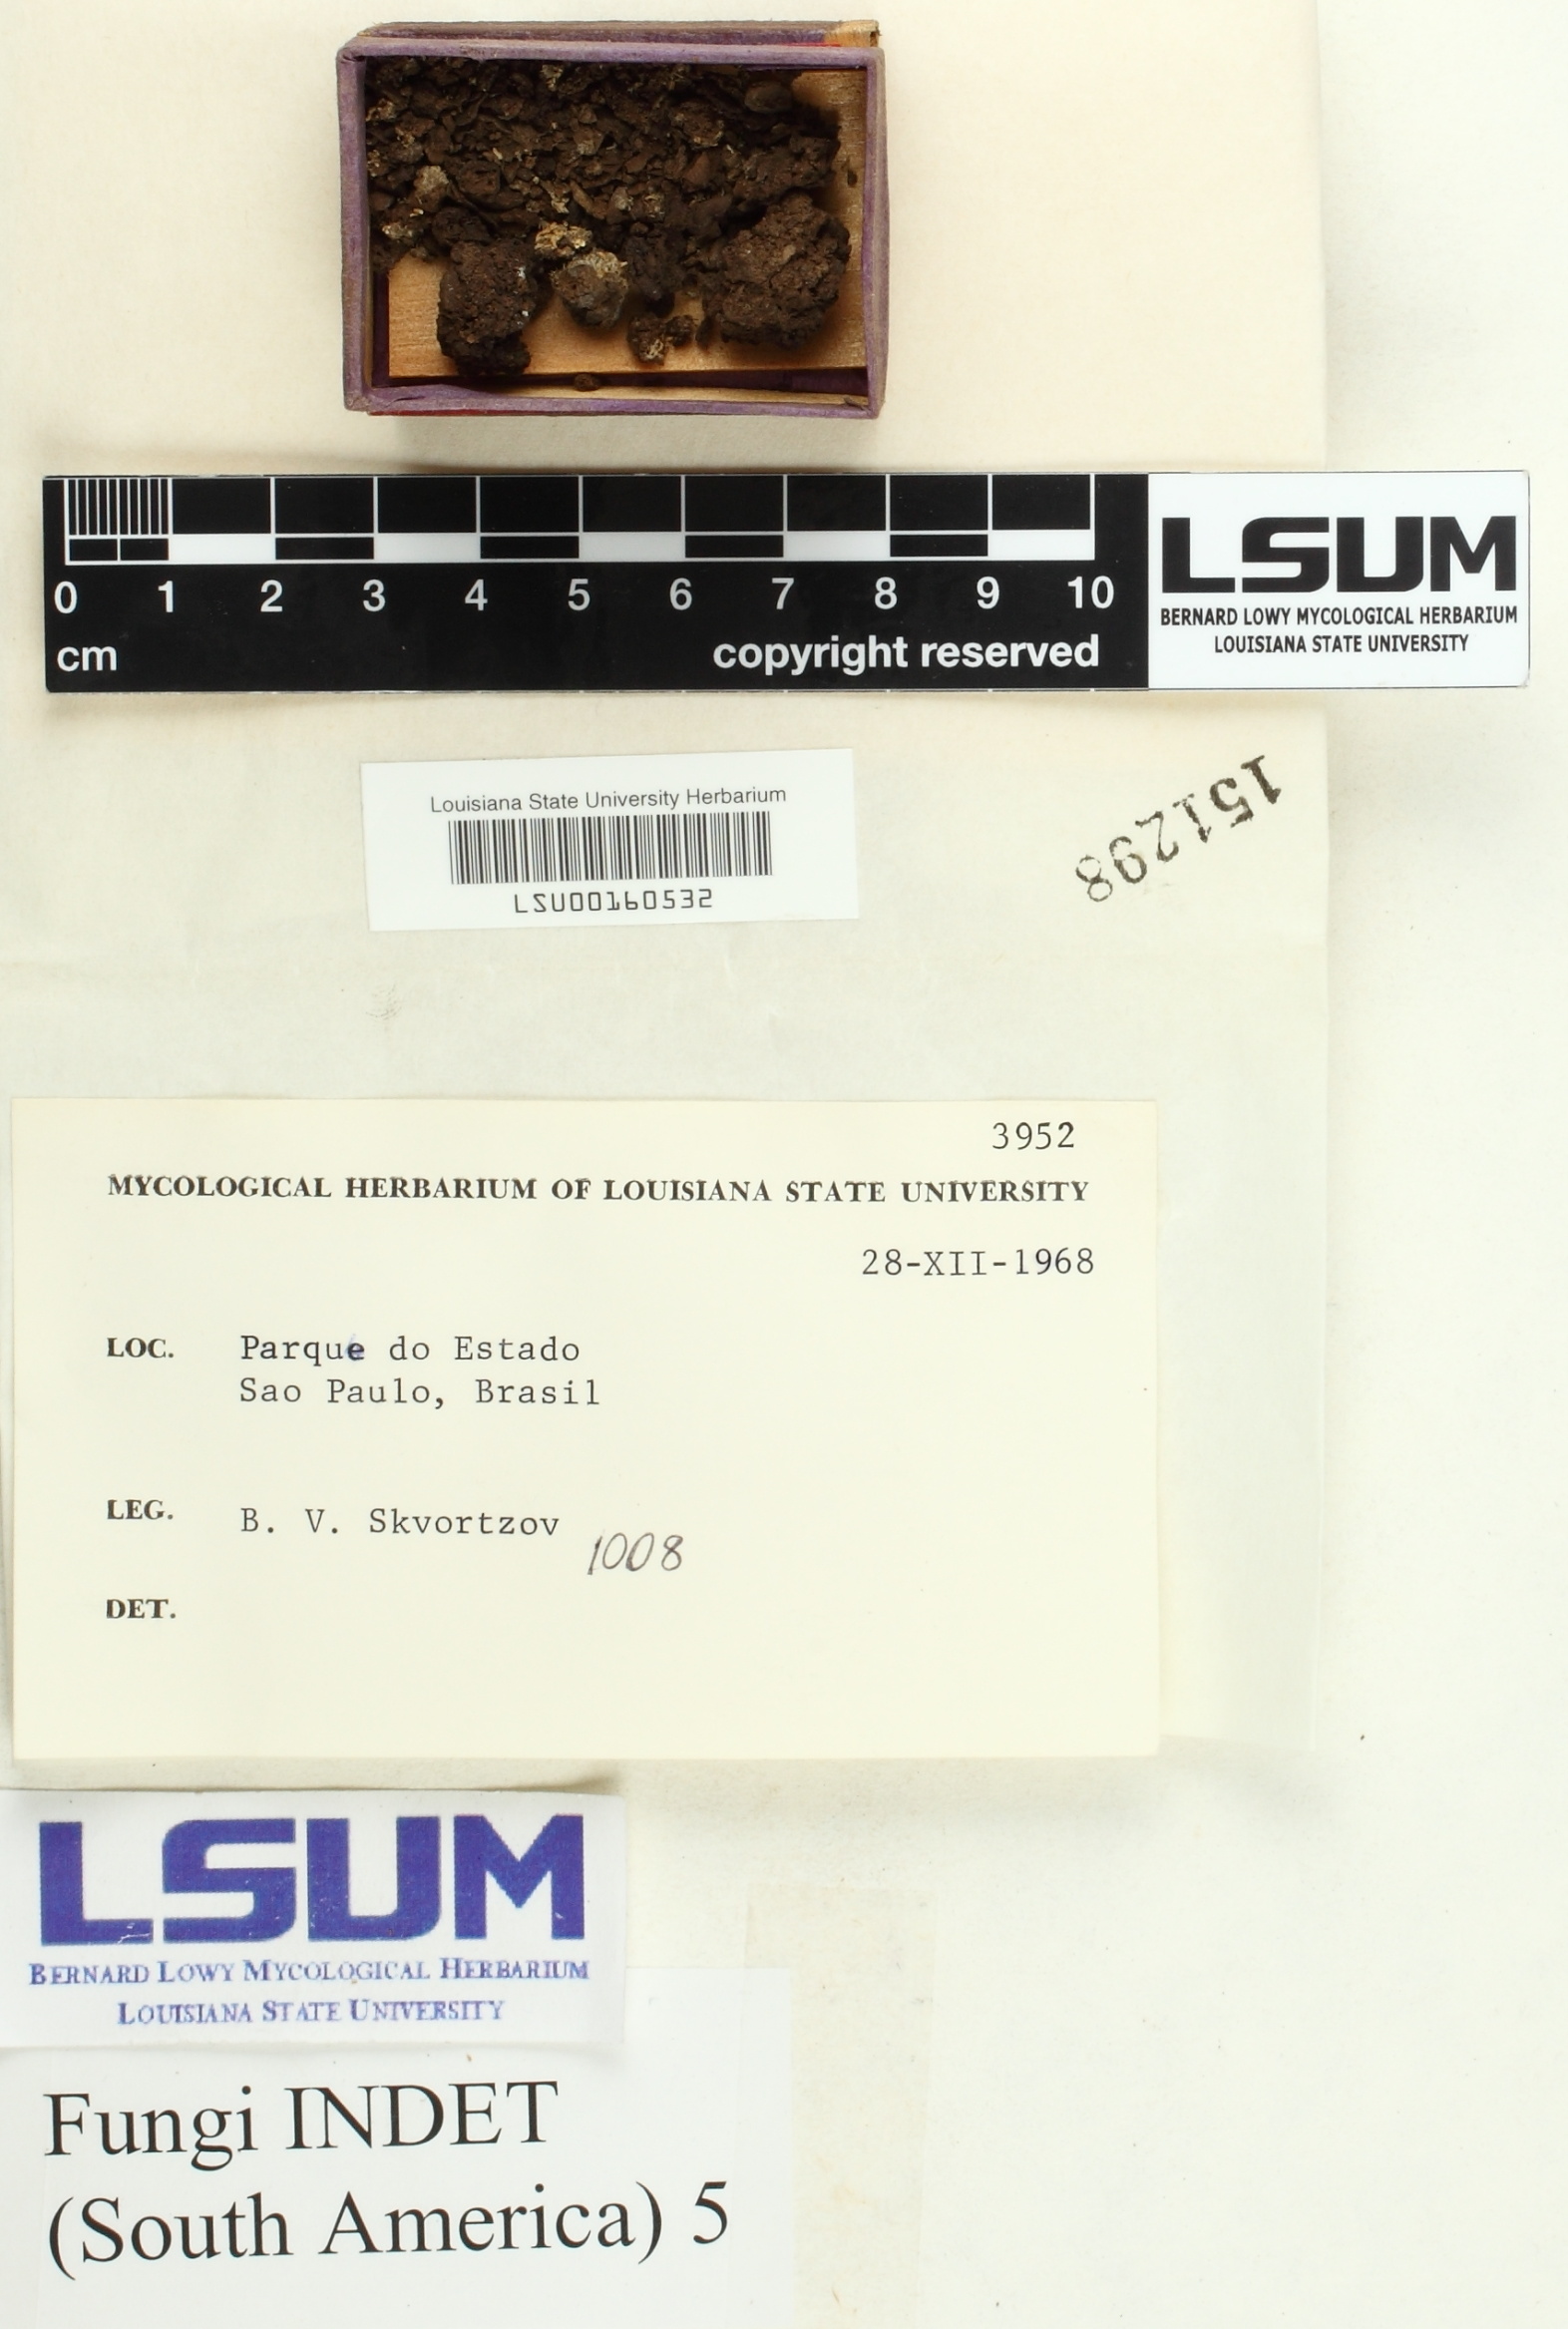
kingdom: Fungi
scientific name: Fungi
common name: Fungi
